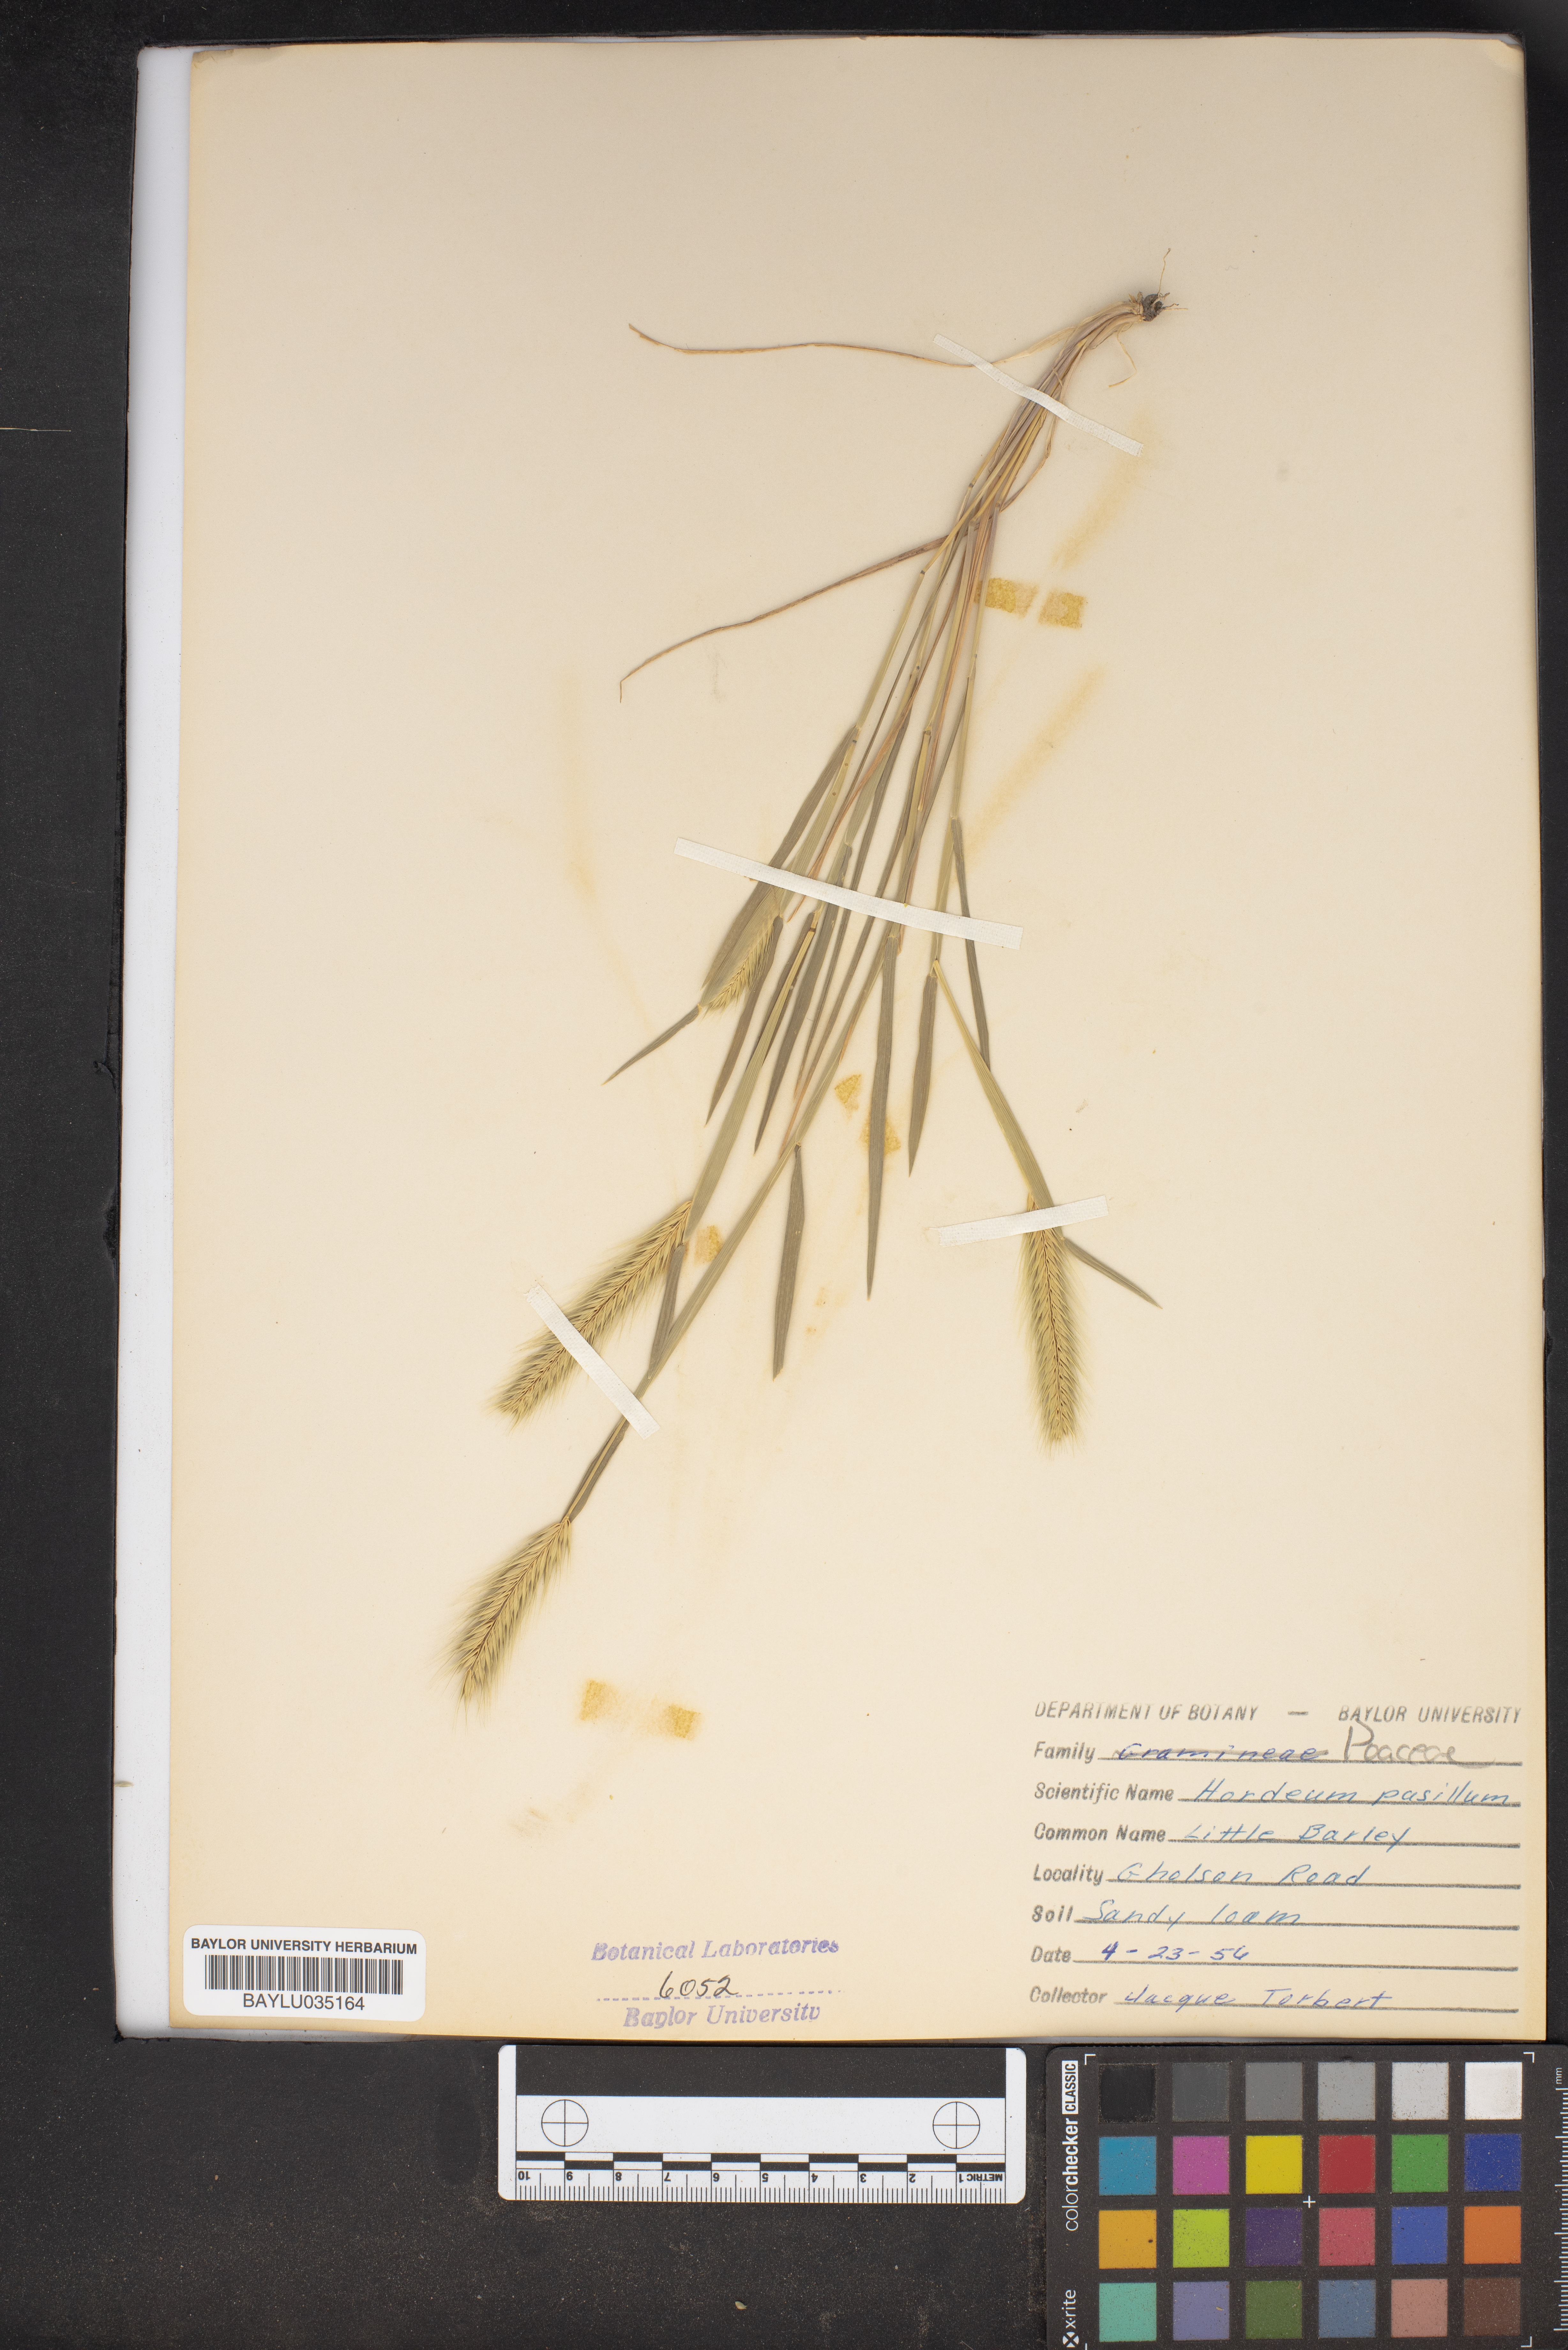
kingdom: Plantae
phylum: Tracheophyta
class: Liliopsida
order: Poales
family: Poaceae
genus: Hordeum
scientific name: Hordeum pusillum
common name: Little barley
